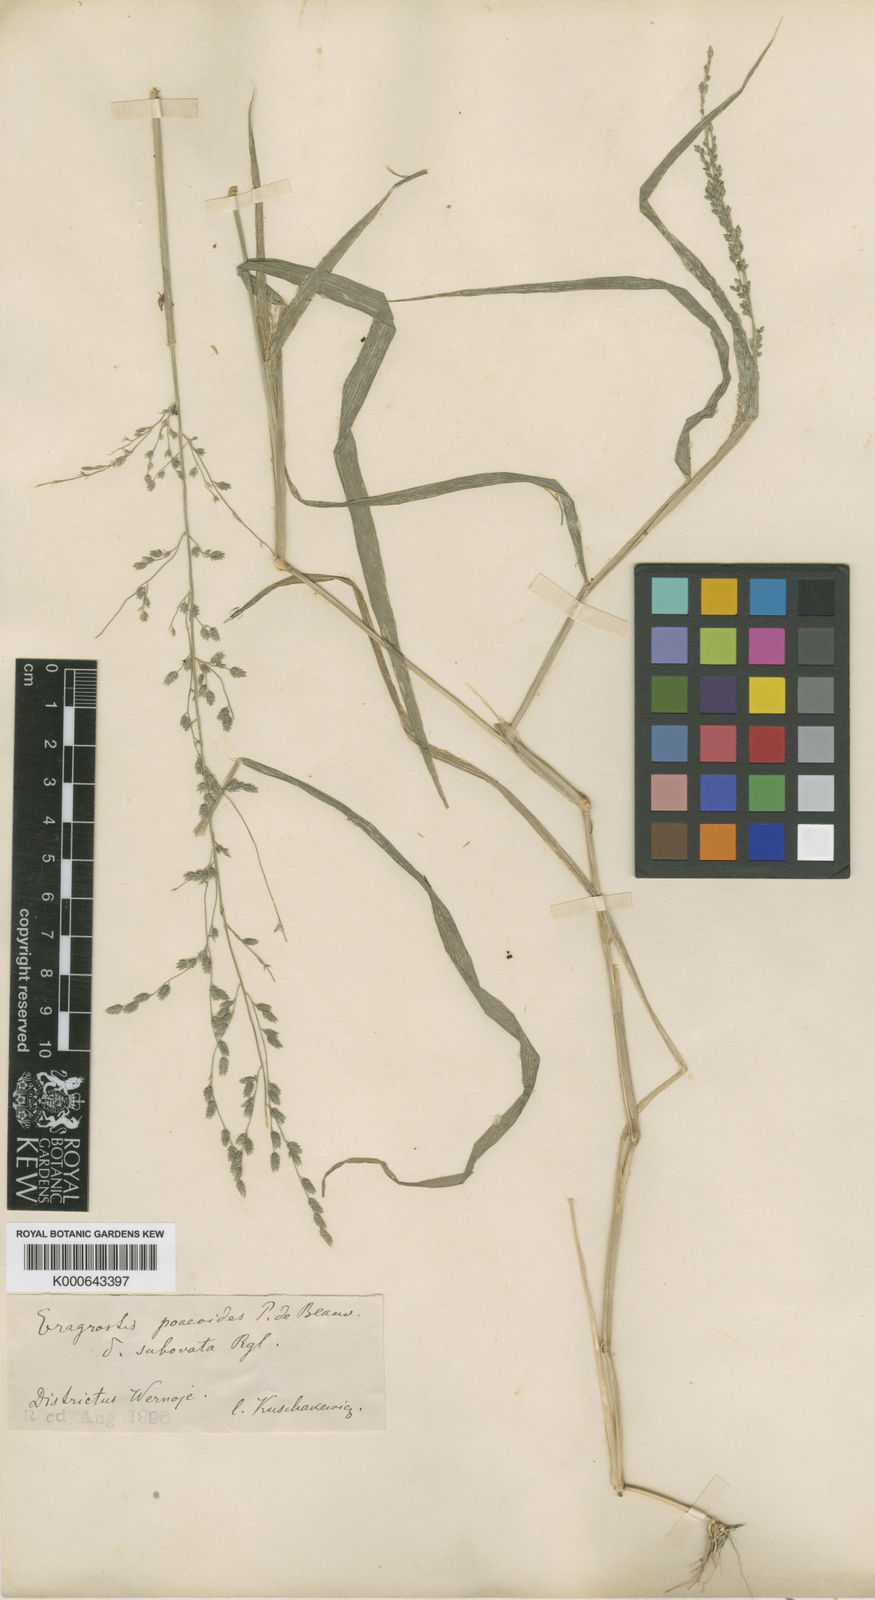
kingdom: Plantae
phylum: Tracheophyta
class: Liliopsida
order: Poales
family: Poaceae
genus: Eragrostis
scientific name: Eragrostis cilianensis
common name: Stinkgrass
